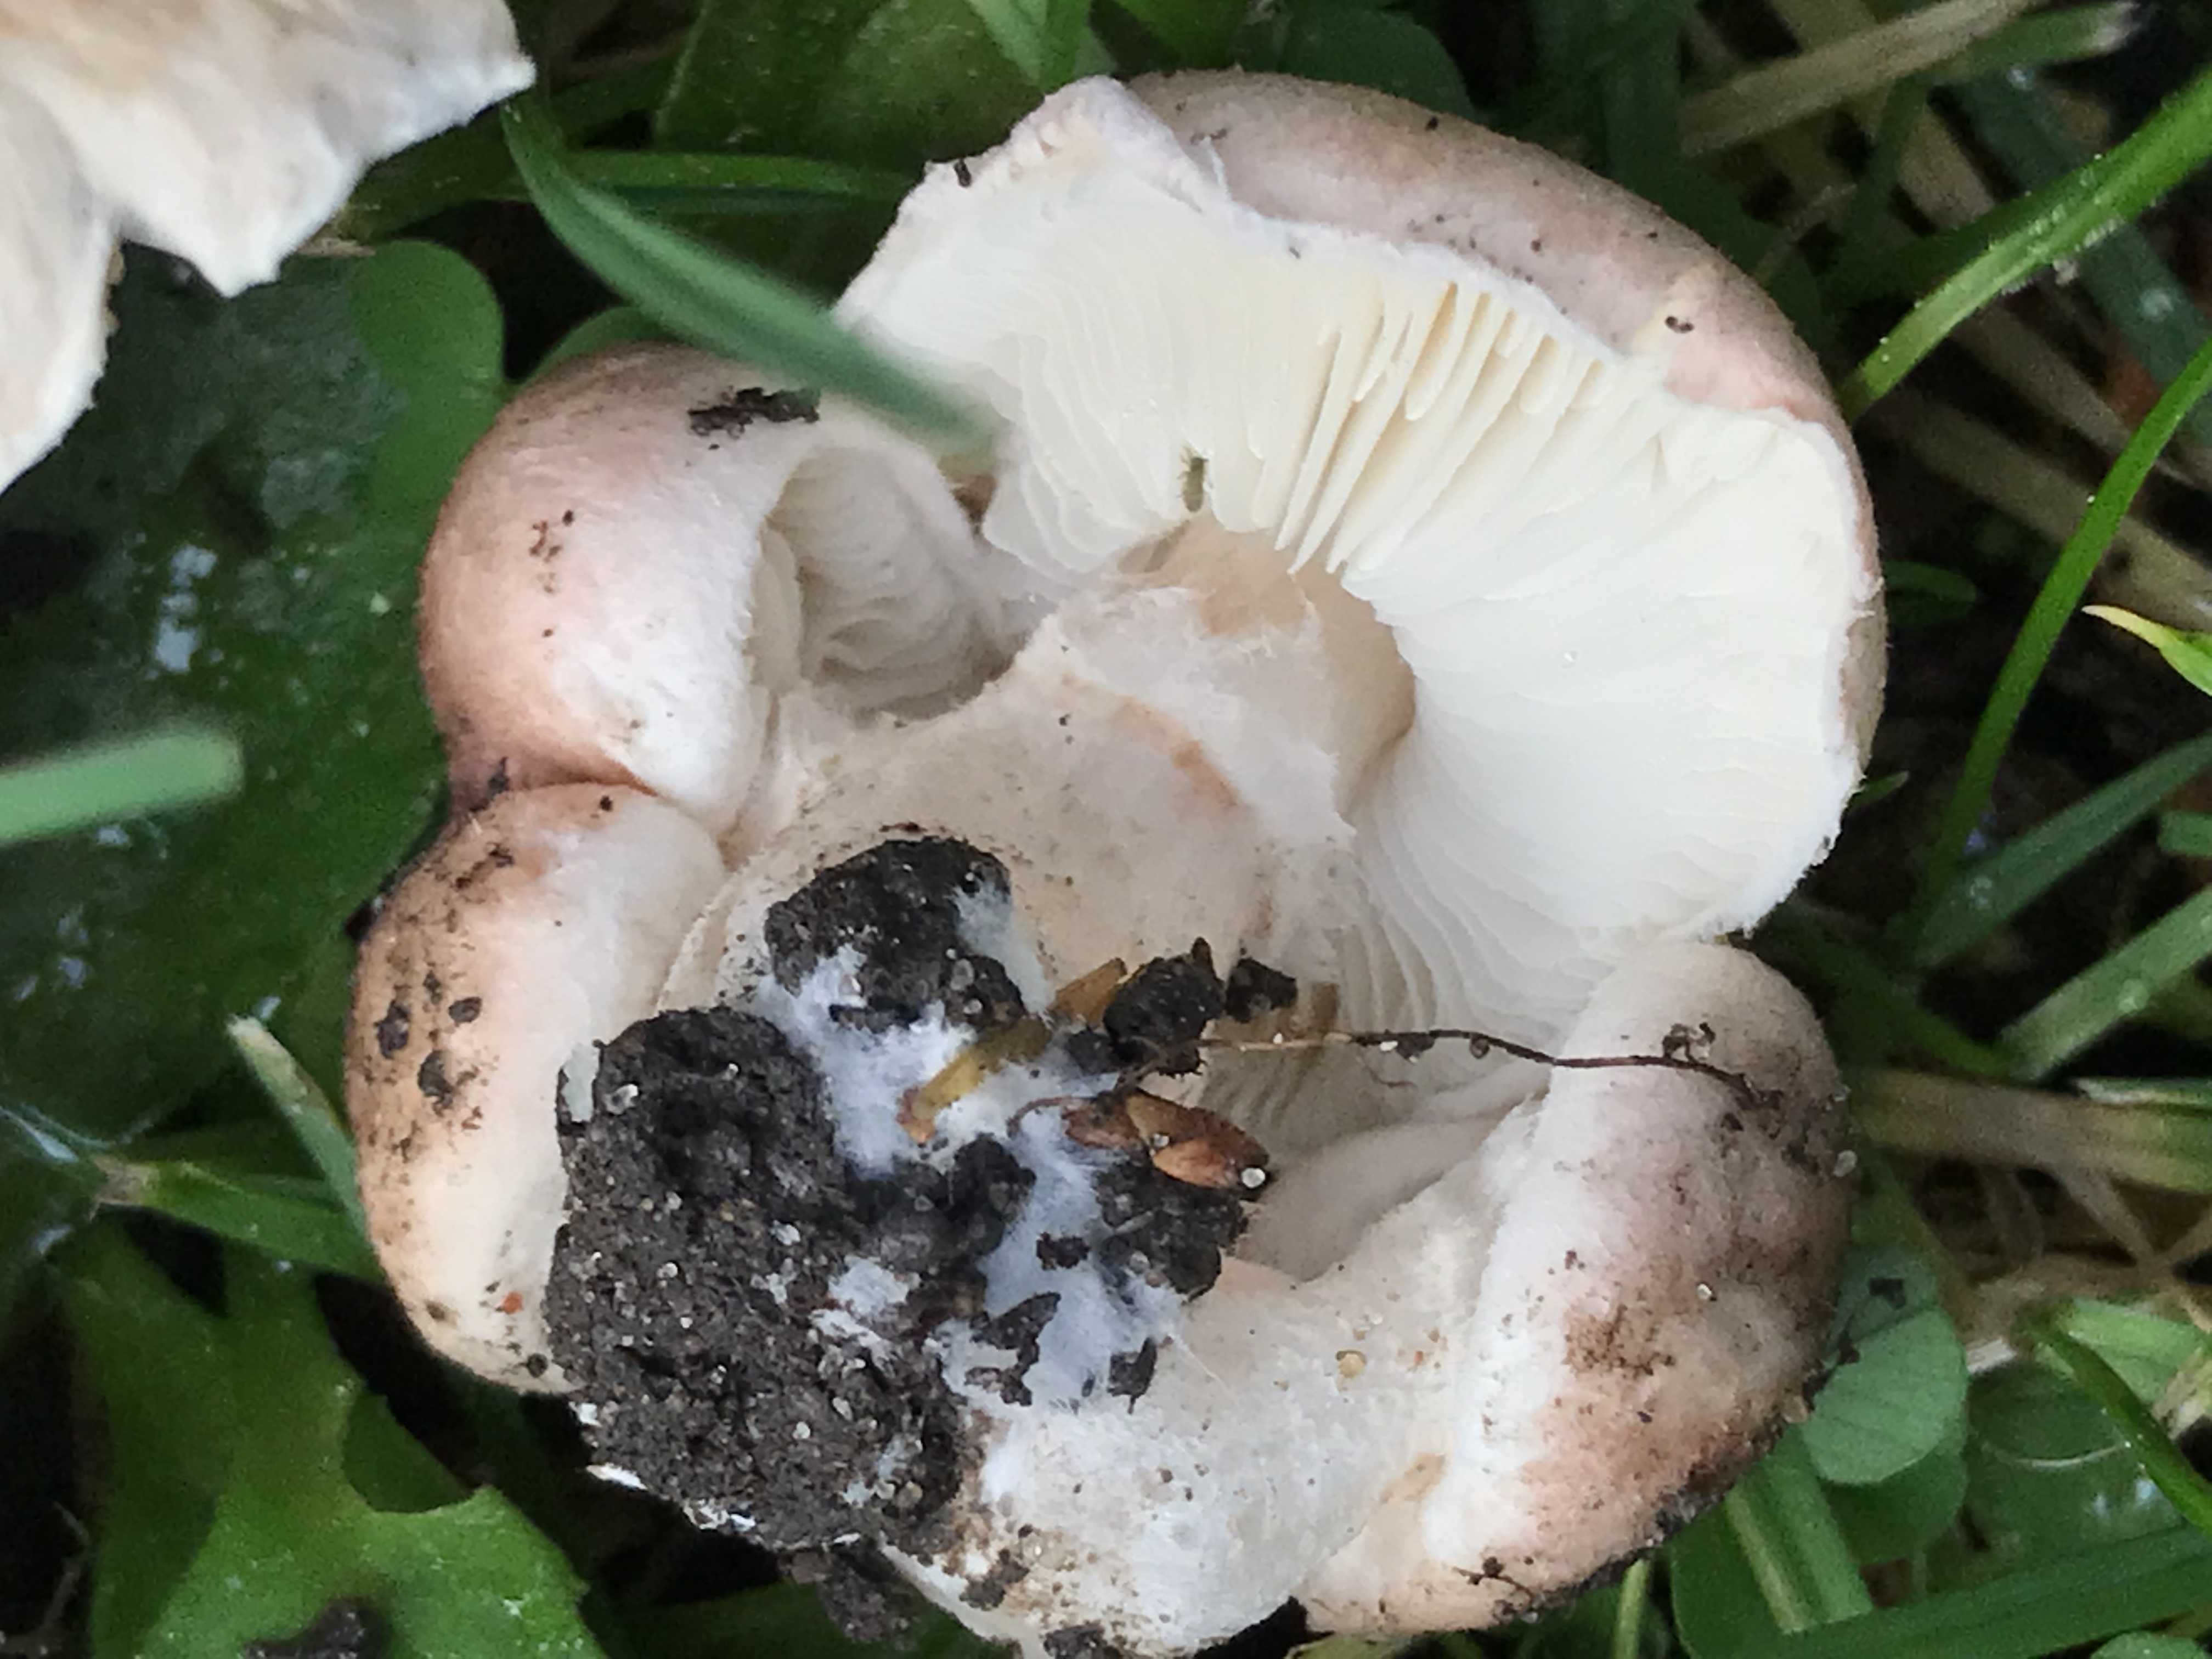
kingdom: Fungi
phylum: Basidiomycota
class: Agaricomycetes
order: Agaricales
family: Agaricaceae
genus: Lepiota
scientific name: Lepiota subincarnata
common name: kødfarvet parasolhat
